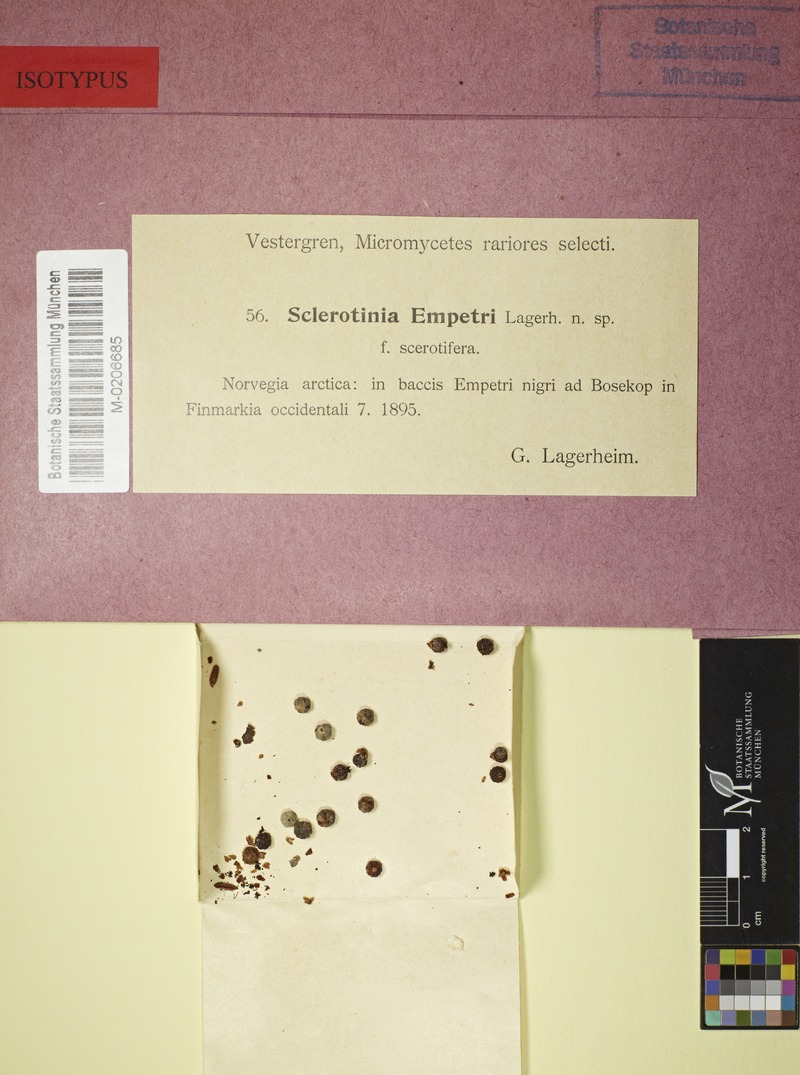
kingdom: Fungi
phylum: Ascomycota
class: Leotiomycetes
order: Helotiales
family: Sclerotiniaceae
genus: Monilinia
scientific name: Monilinia empetri
